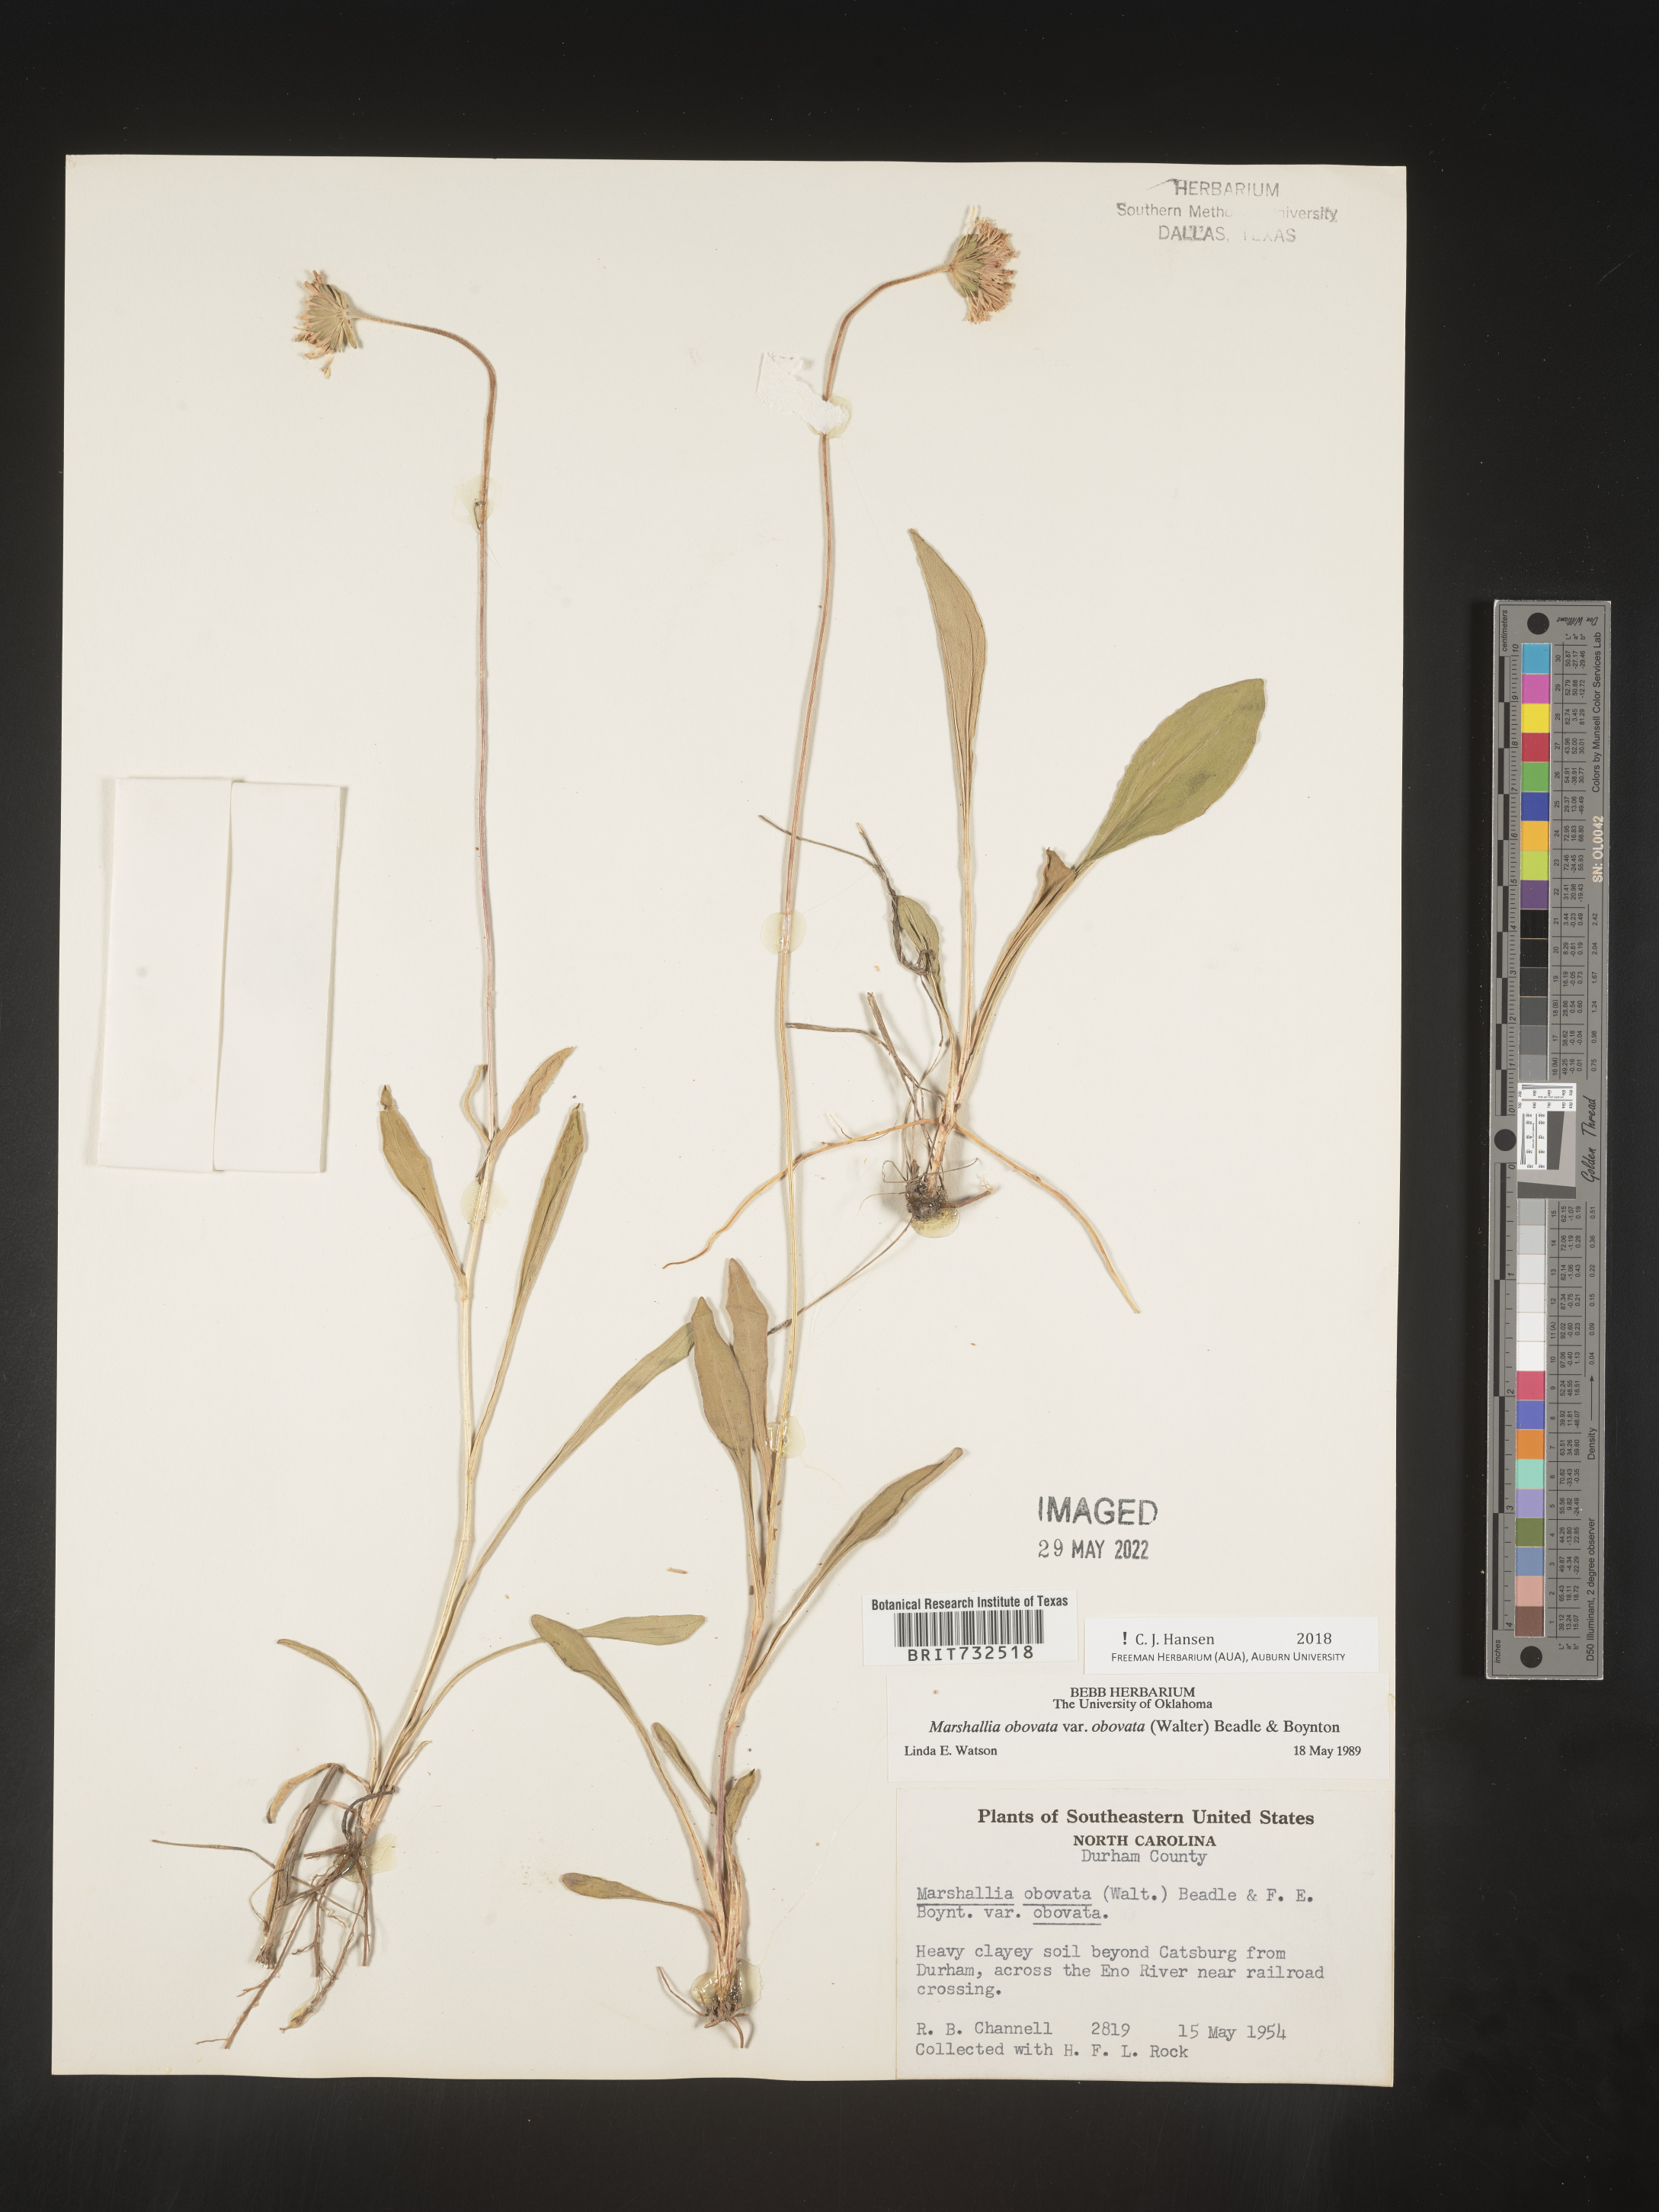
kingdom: Plantae
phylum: Tracheophyta
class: Magnoliopsida
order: Asterales
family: Asteraceae
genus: Marshallia
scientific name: Marshallia obovata
